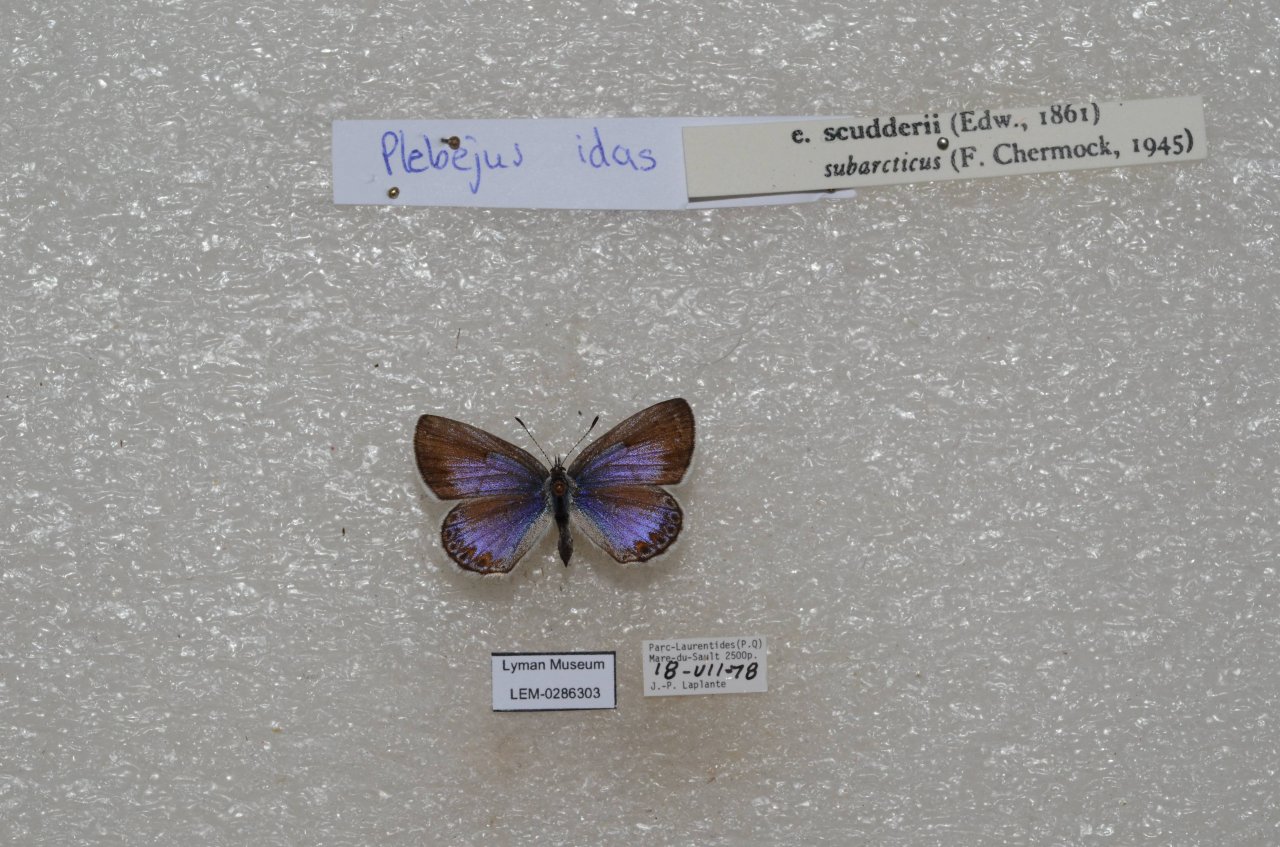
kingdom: Animalia
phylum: Arthropoda
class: Insecta
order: Lepidoptera
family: Lycaenidae
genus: Lycaeides
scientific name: Lycaeides idas
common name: Northern Blue
